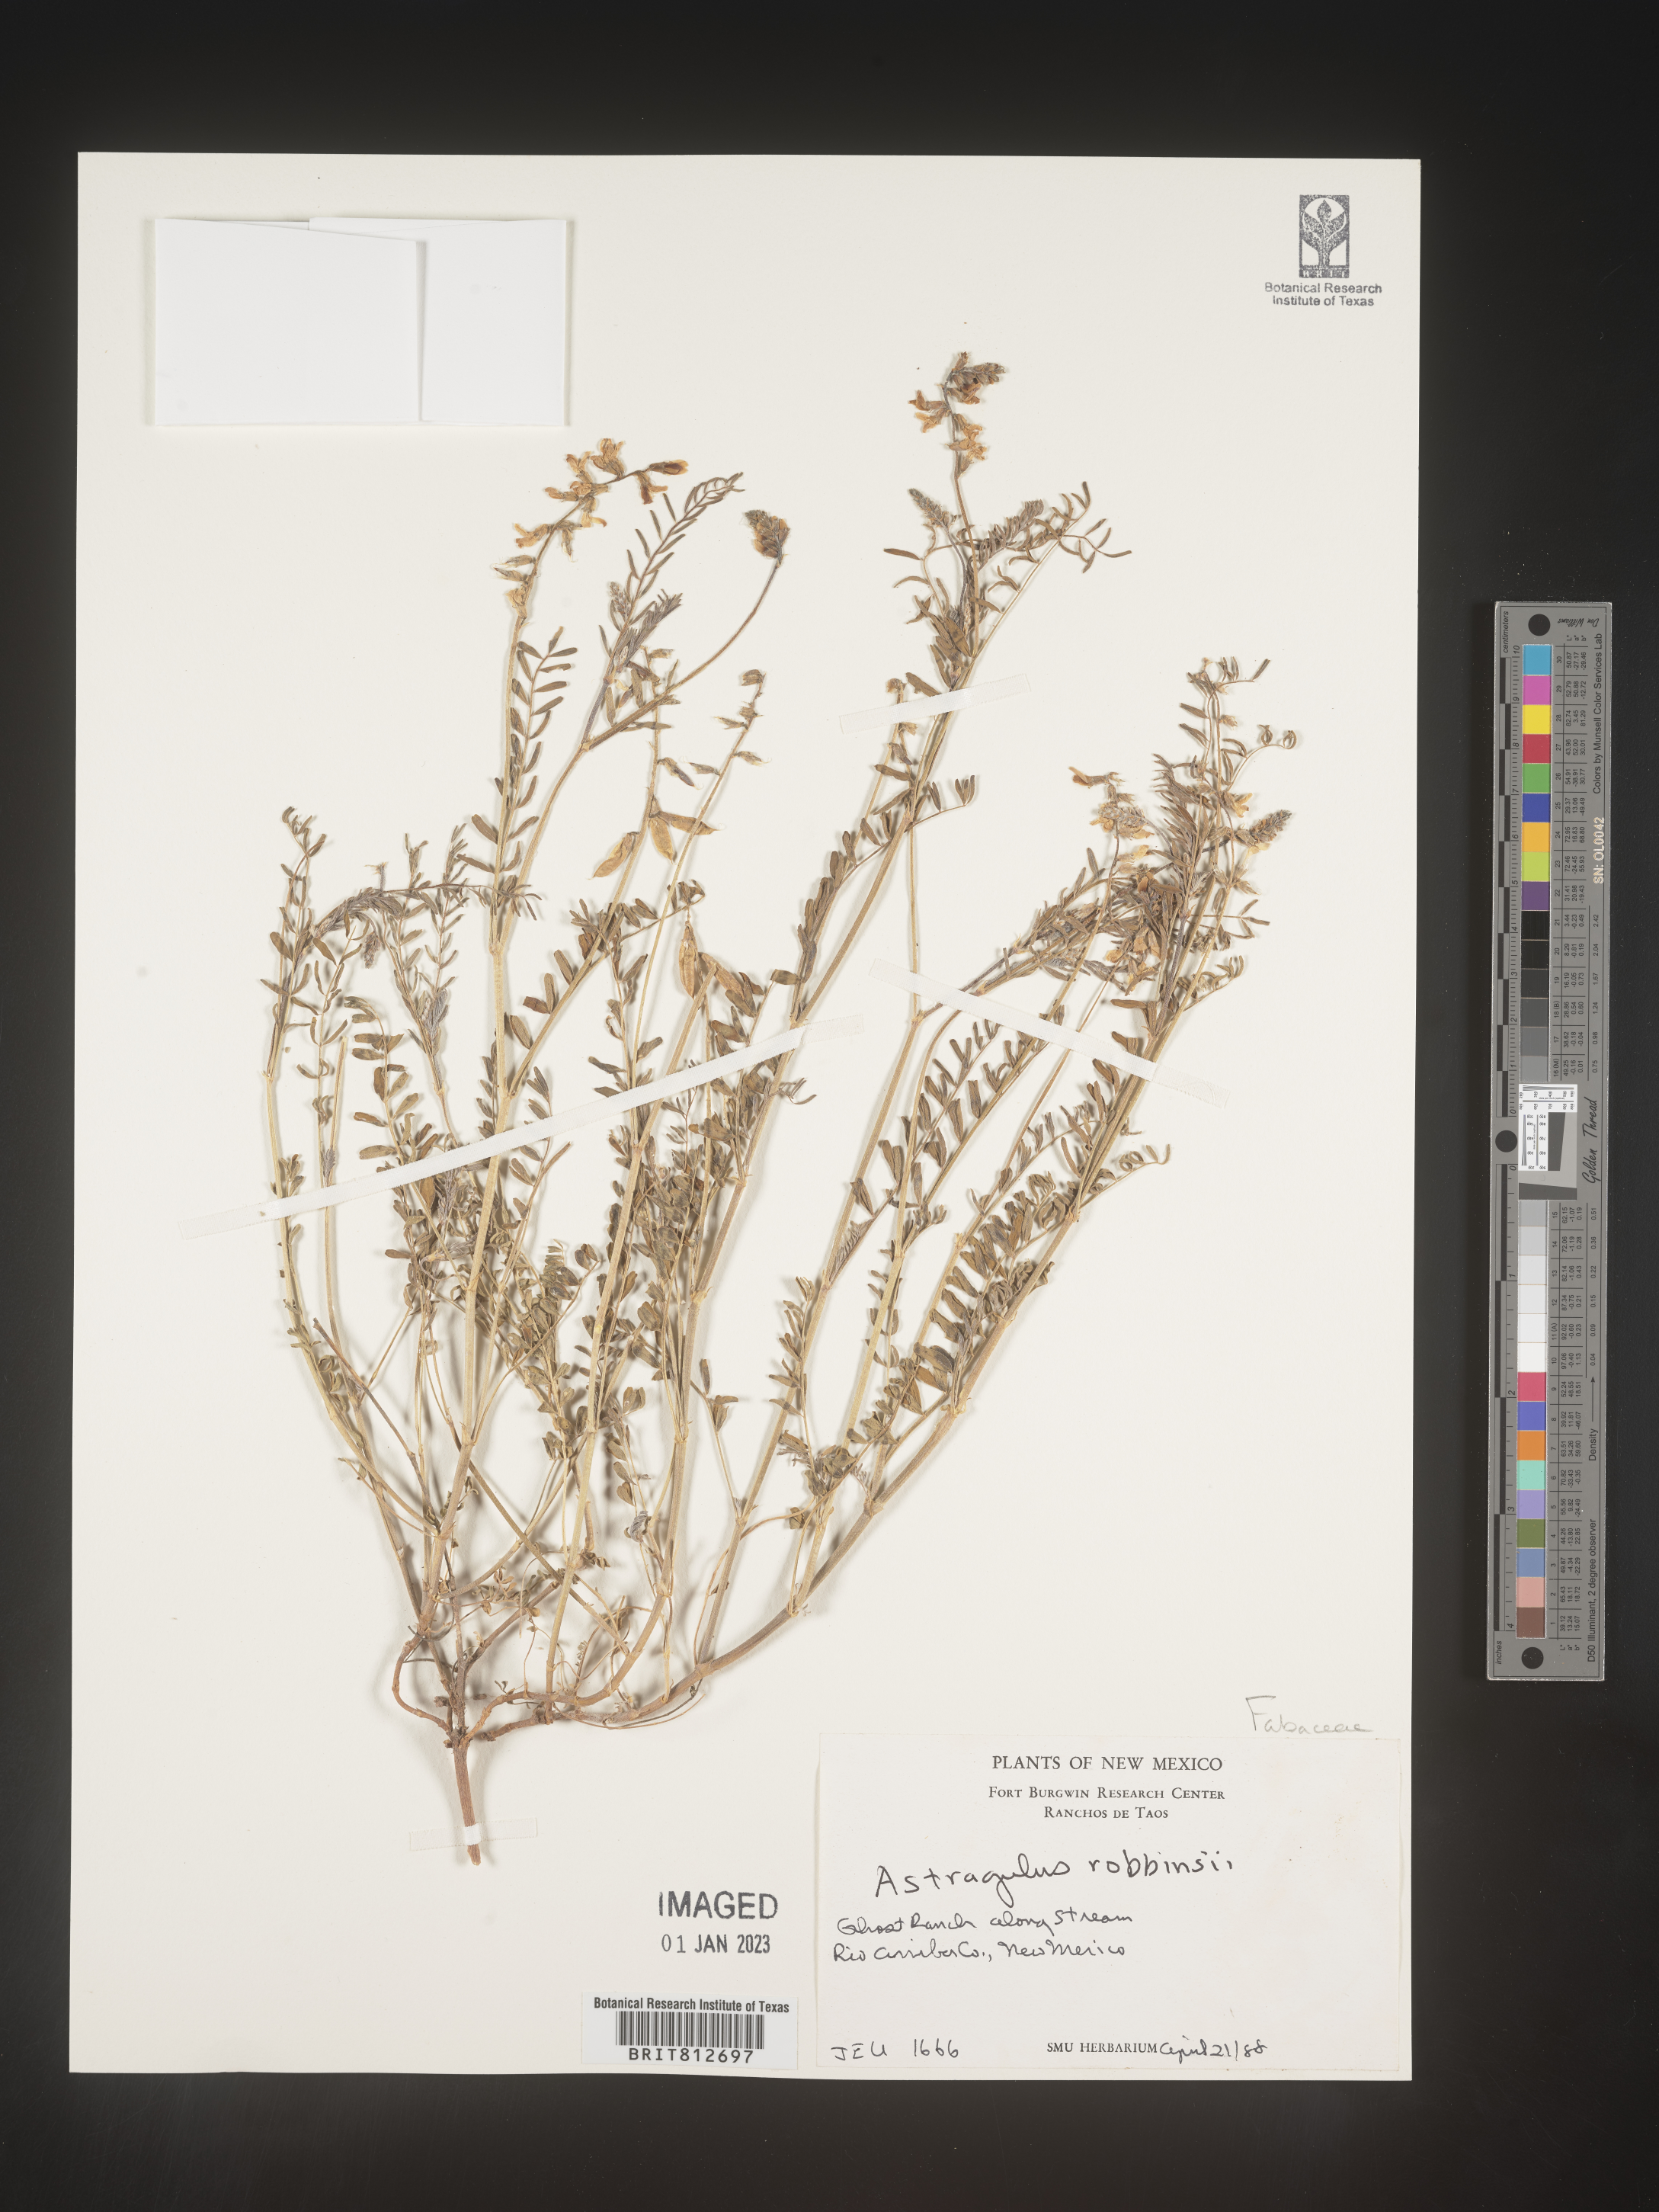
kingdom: Plantae
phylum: Tracheophyta
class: Magnoliopsida
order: Fabales
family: Fabaceae
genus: Astragalus
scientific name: Astragalus
